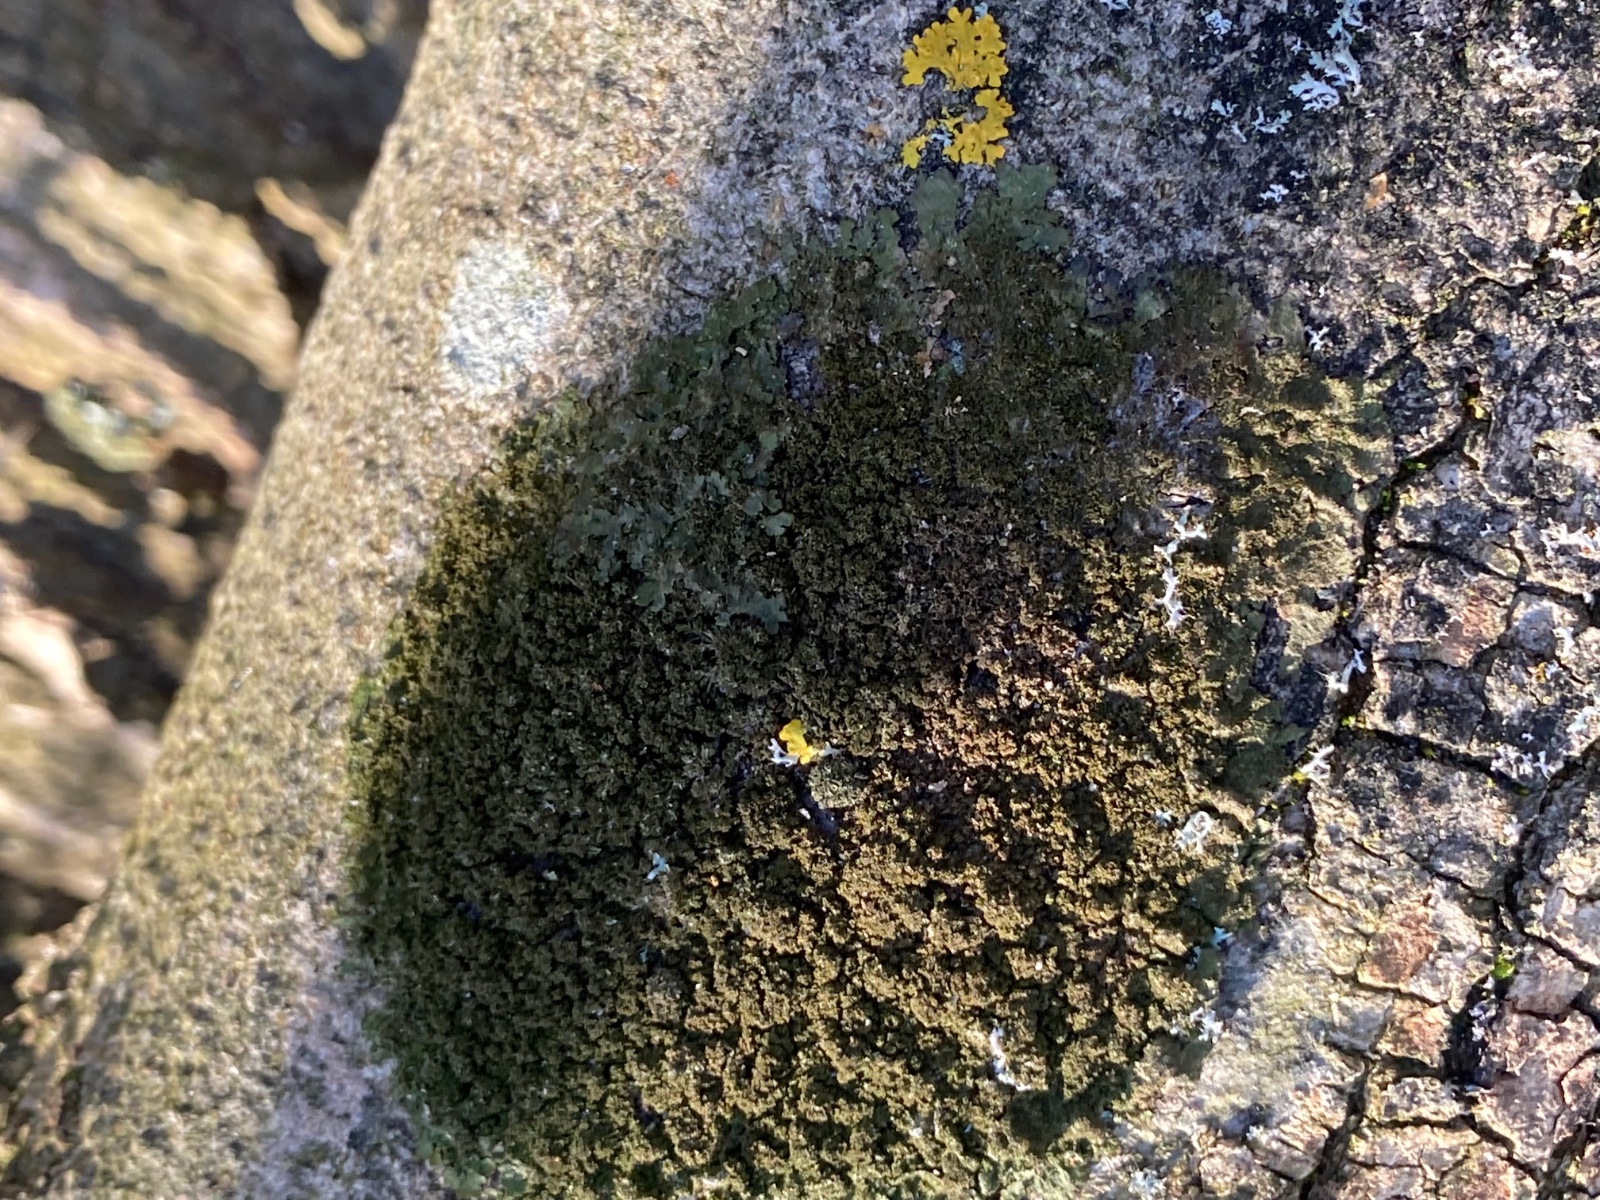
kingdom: Fungi
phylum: Ascomycota
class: Lecanoromycetes
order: Lecanorales
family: Parmeliaceae
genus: Melanohalea
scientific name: Melanohalea exasperatula
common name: kølle-skållav
